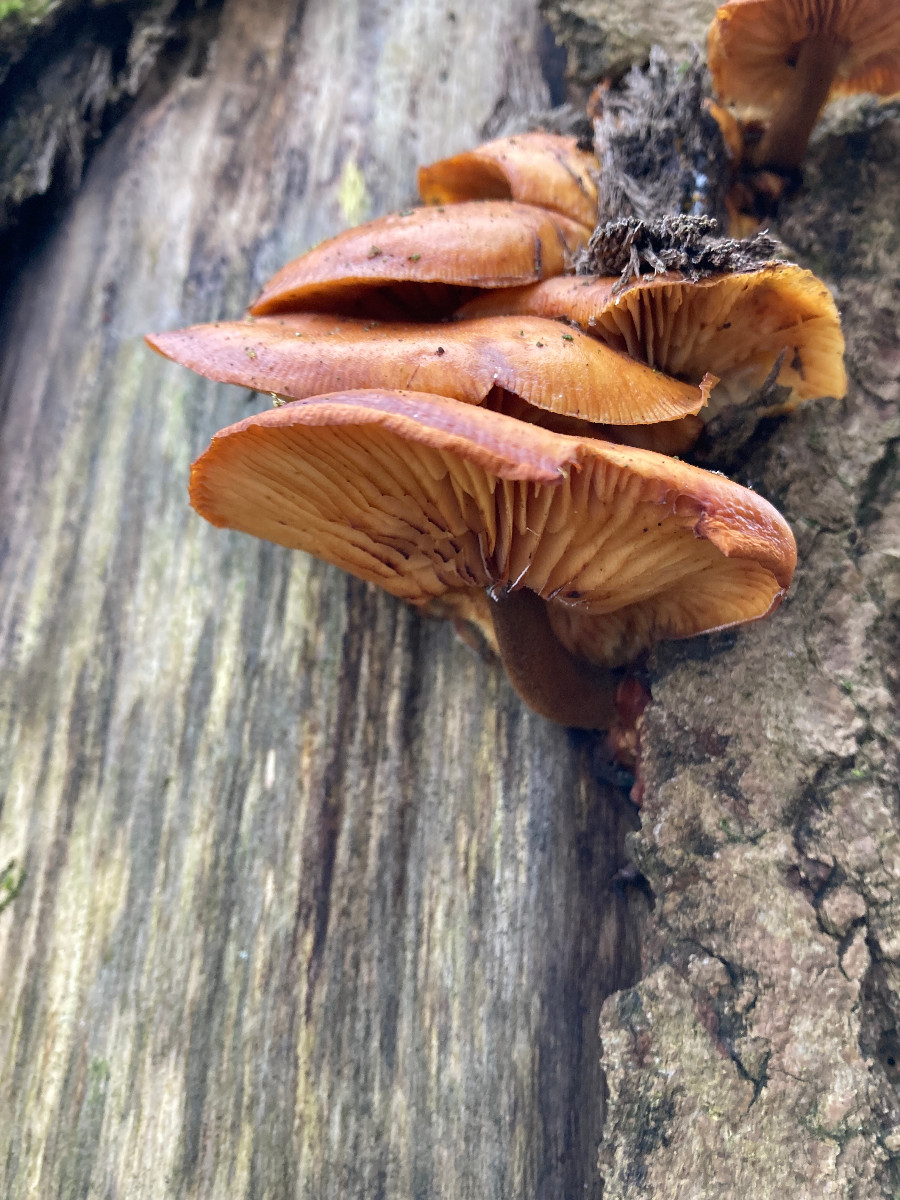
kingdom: Fungi
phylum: Basidiomycota
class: Agaricomycetes
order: Agaricales
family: Physalacriaceae
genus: Flammulina
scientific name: Flammulina velutipes
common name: gul fløjlsfod
